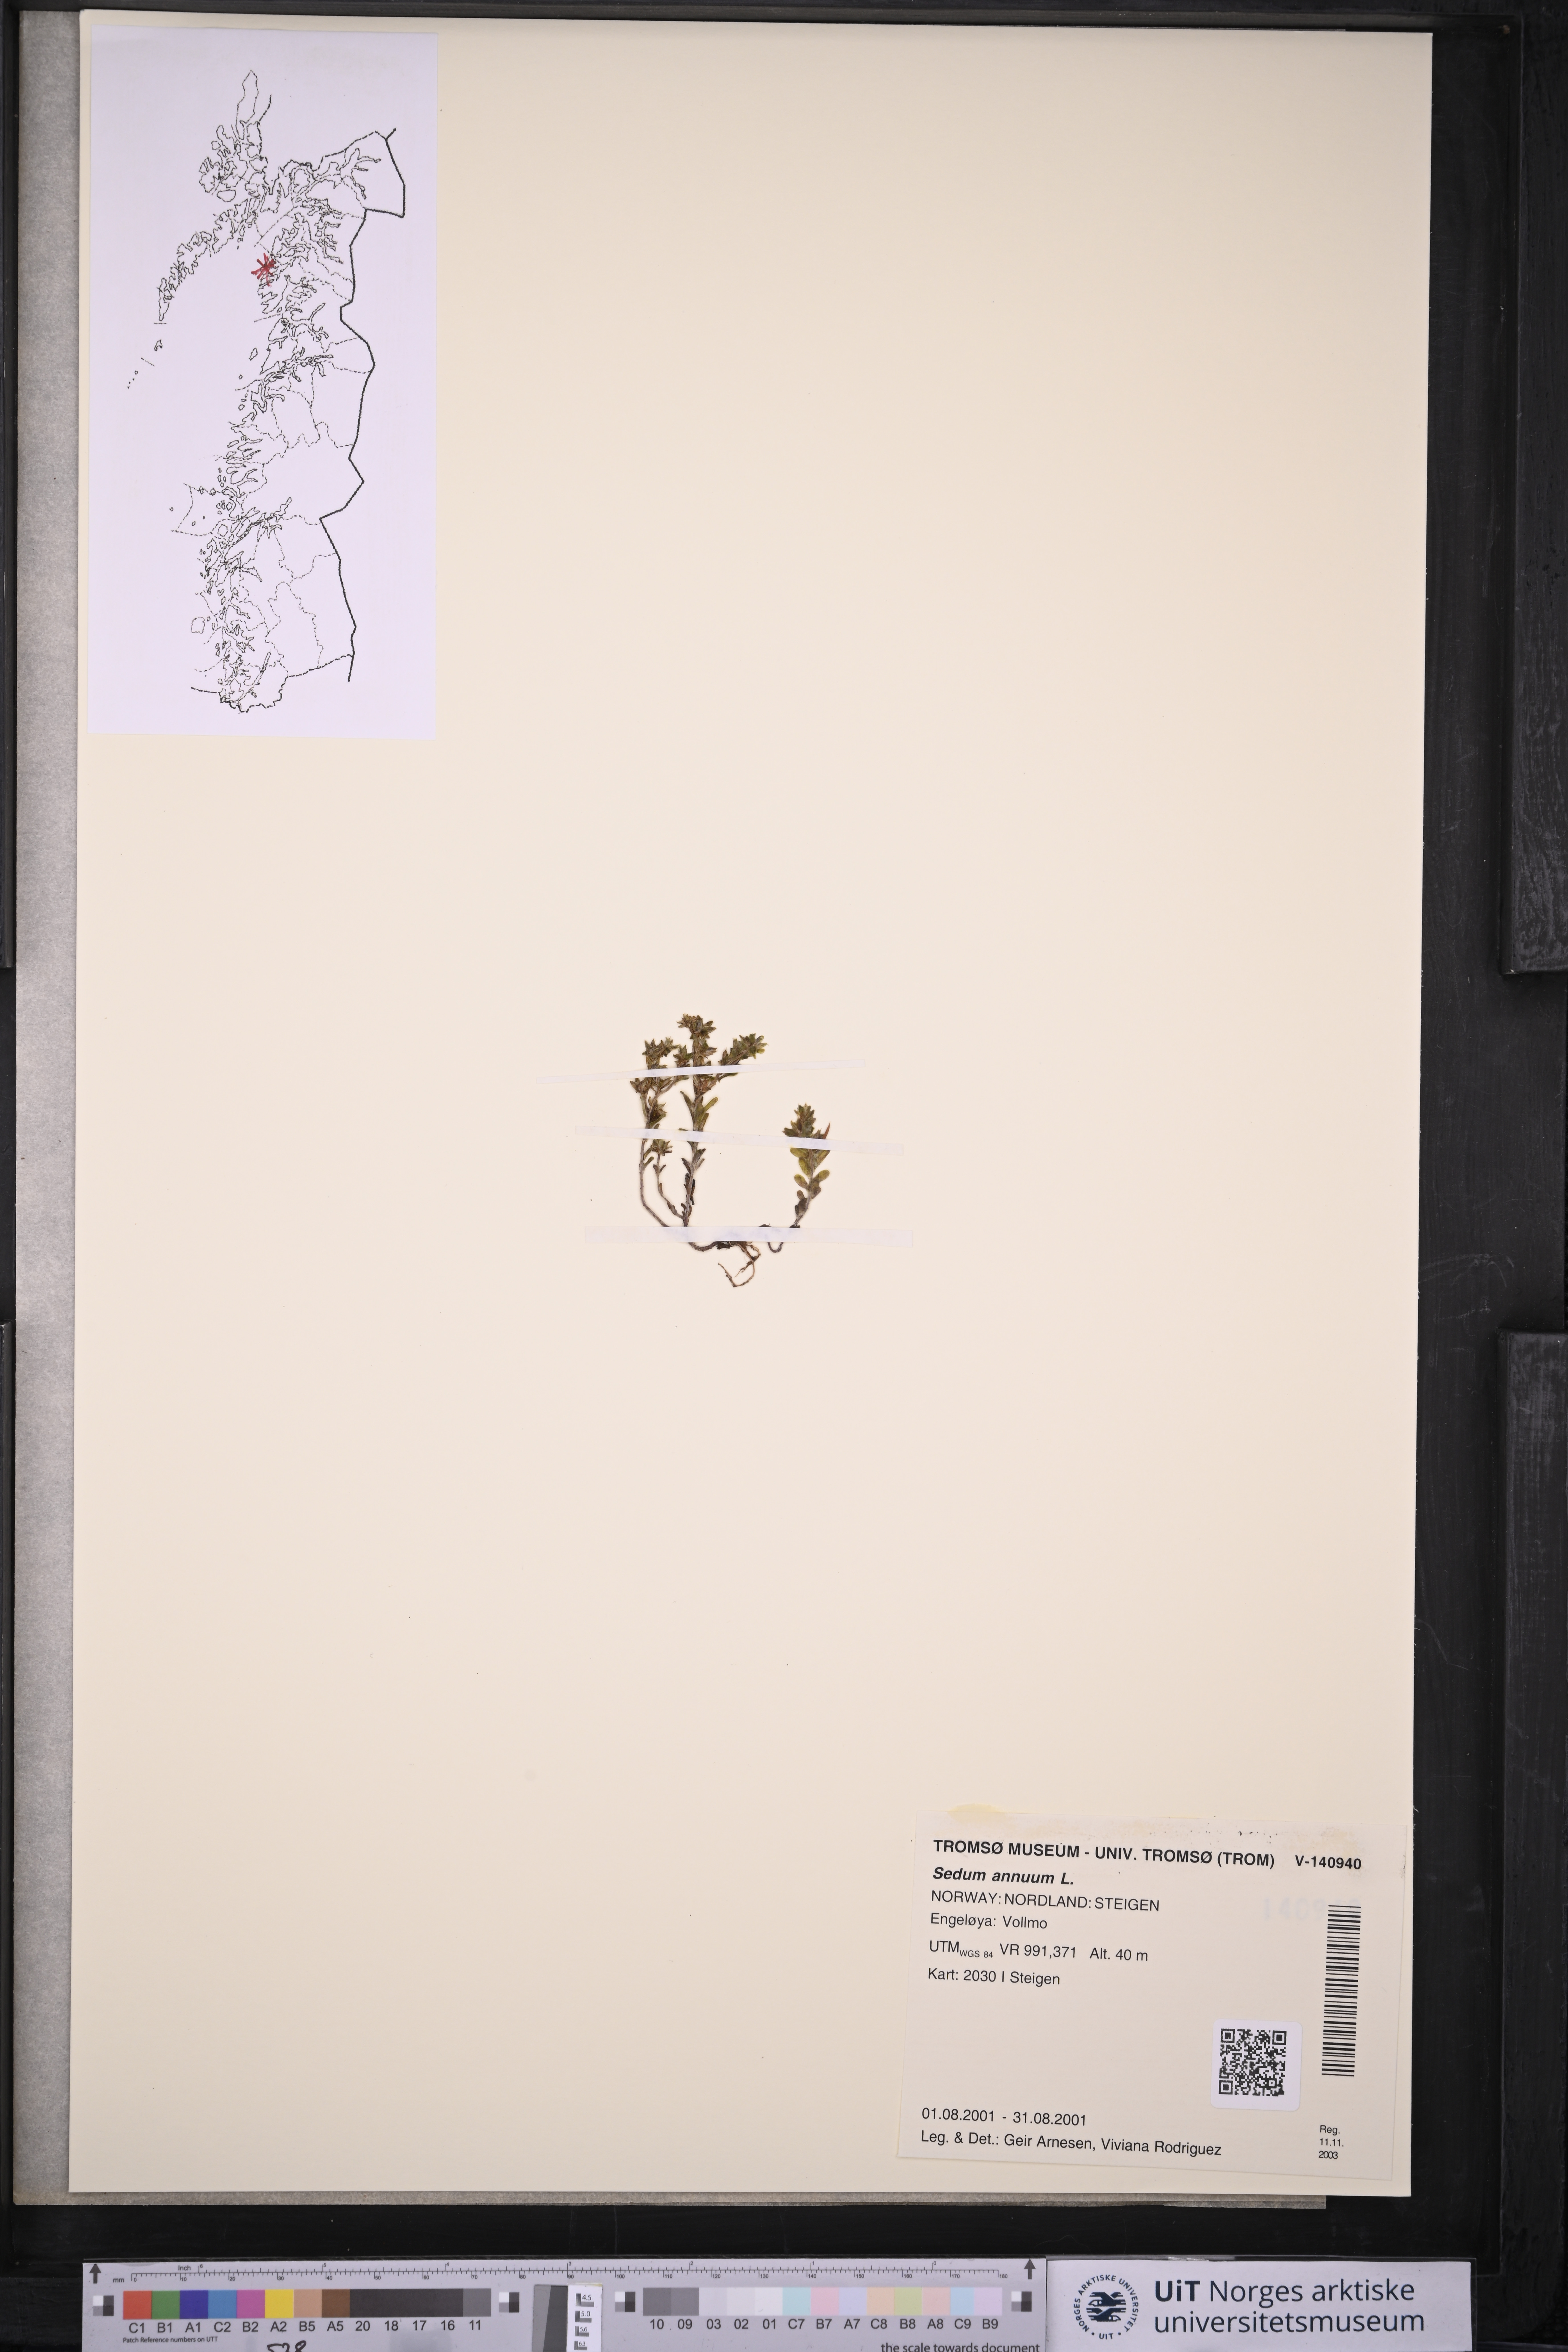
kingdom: Plantae
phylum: Tracheophyta
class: Magnoliopsida
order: Saxifragales
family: Crassulaceae
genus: Sedum
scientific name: Sedum annuum
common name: Annual stonecrop
